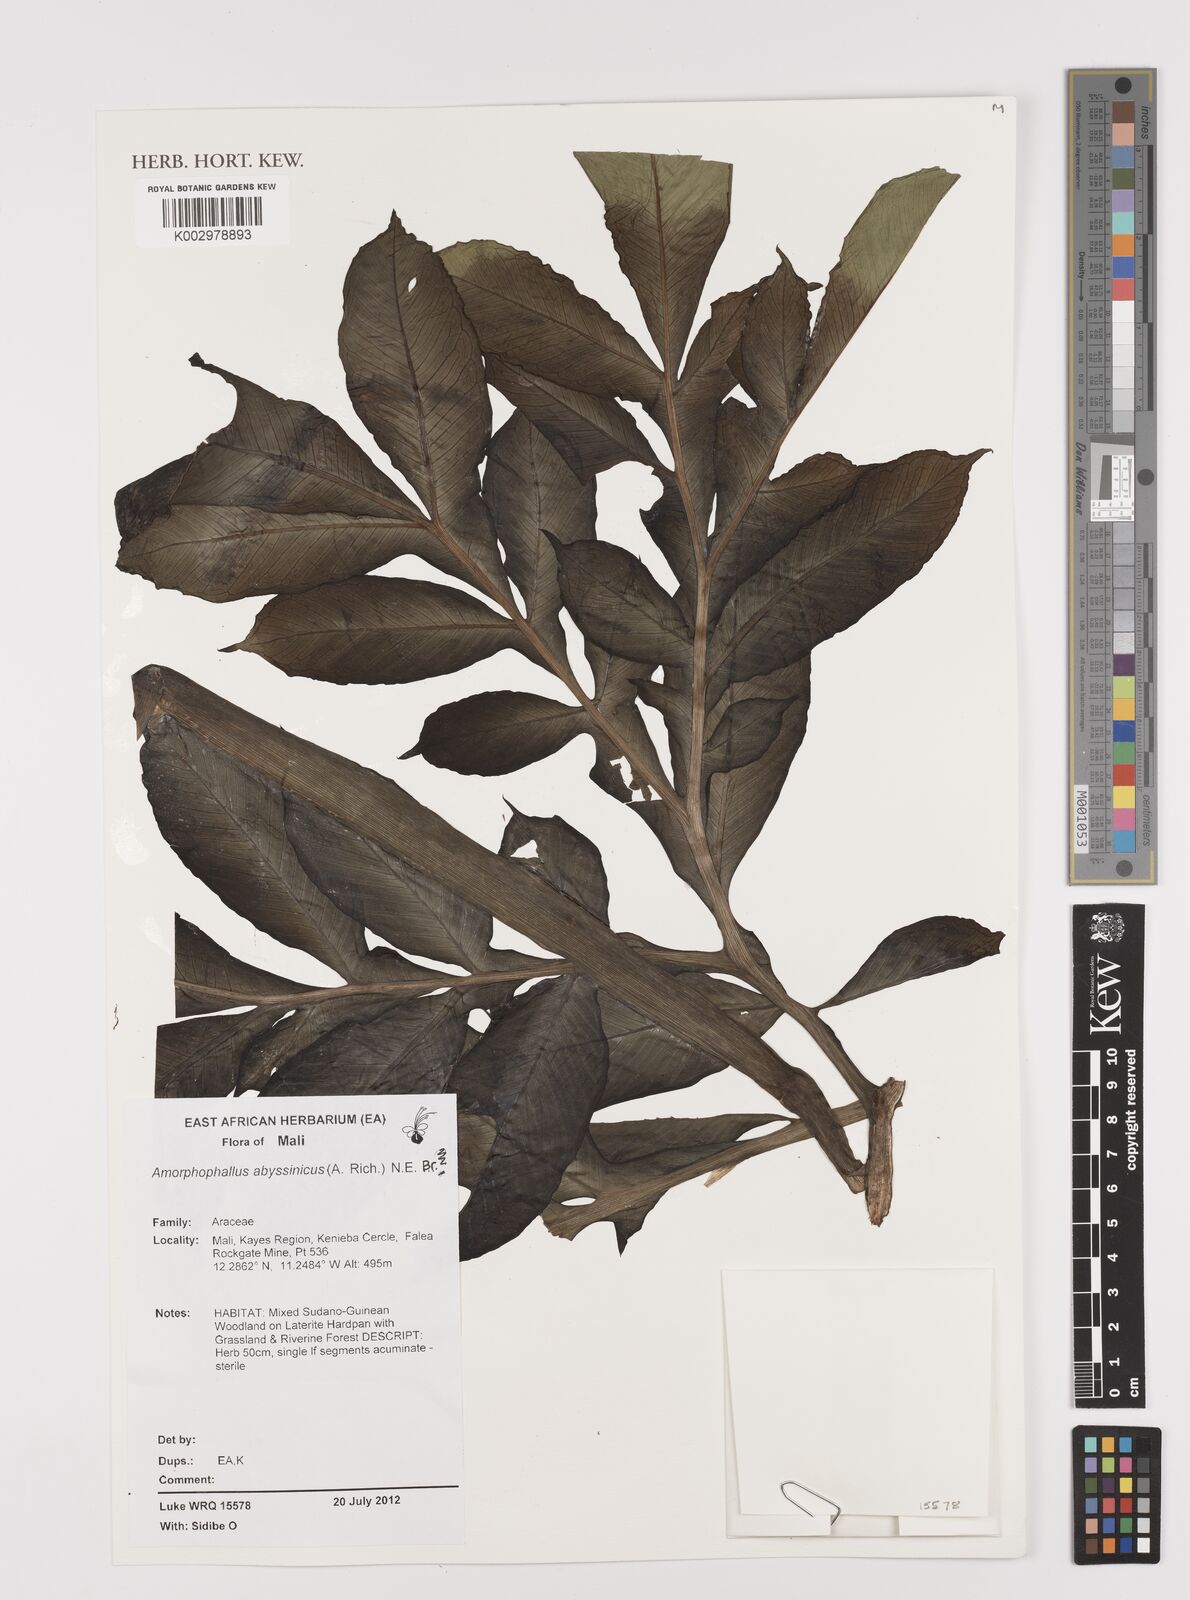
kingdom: Plantae
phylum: Tracheophyta
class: Liliopsida
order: Alismatales
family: Araceae
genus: Amorphophallus
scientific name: Amorphophallus abyssinicus
